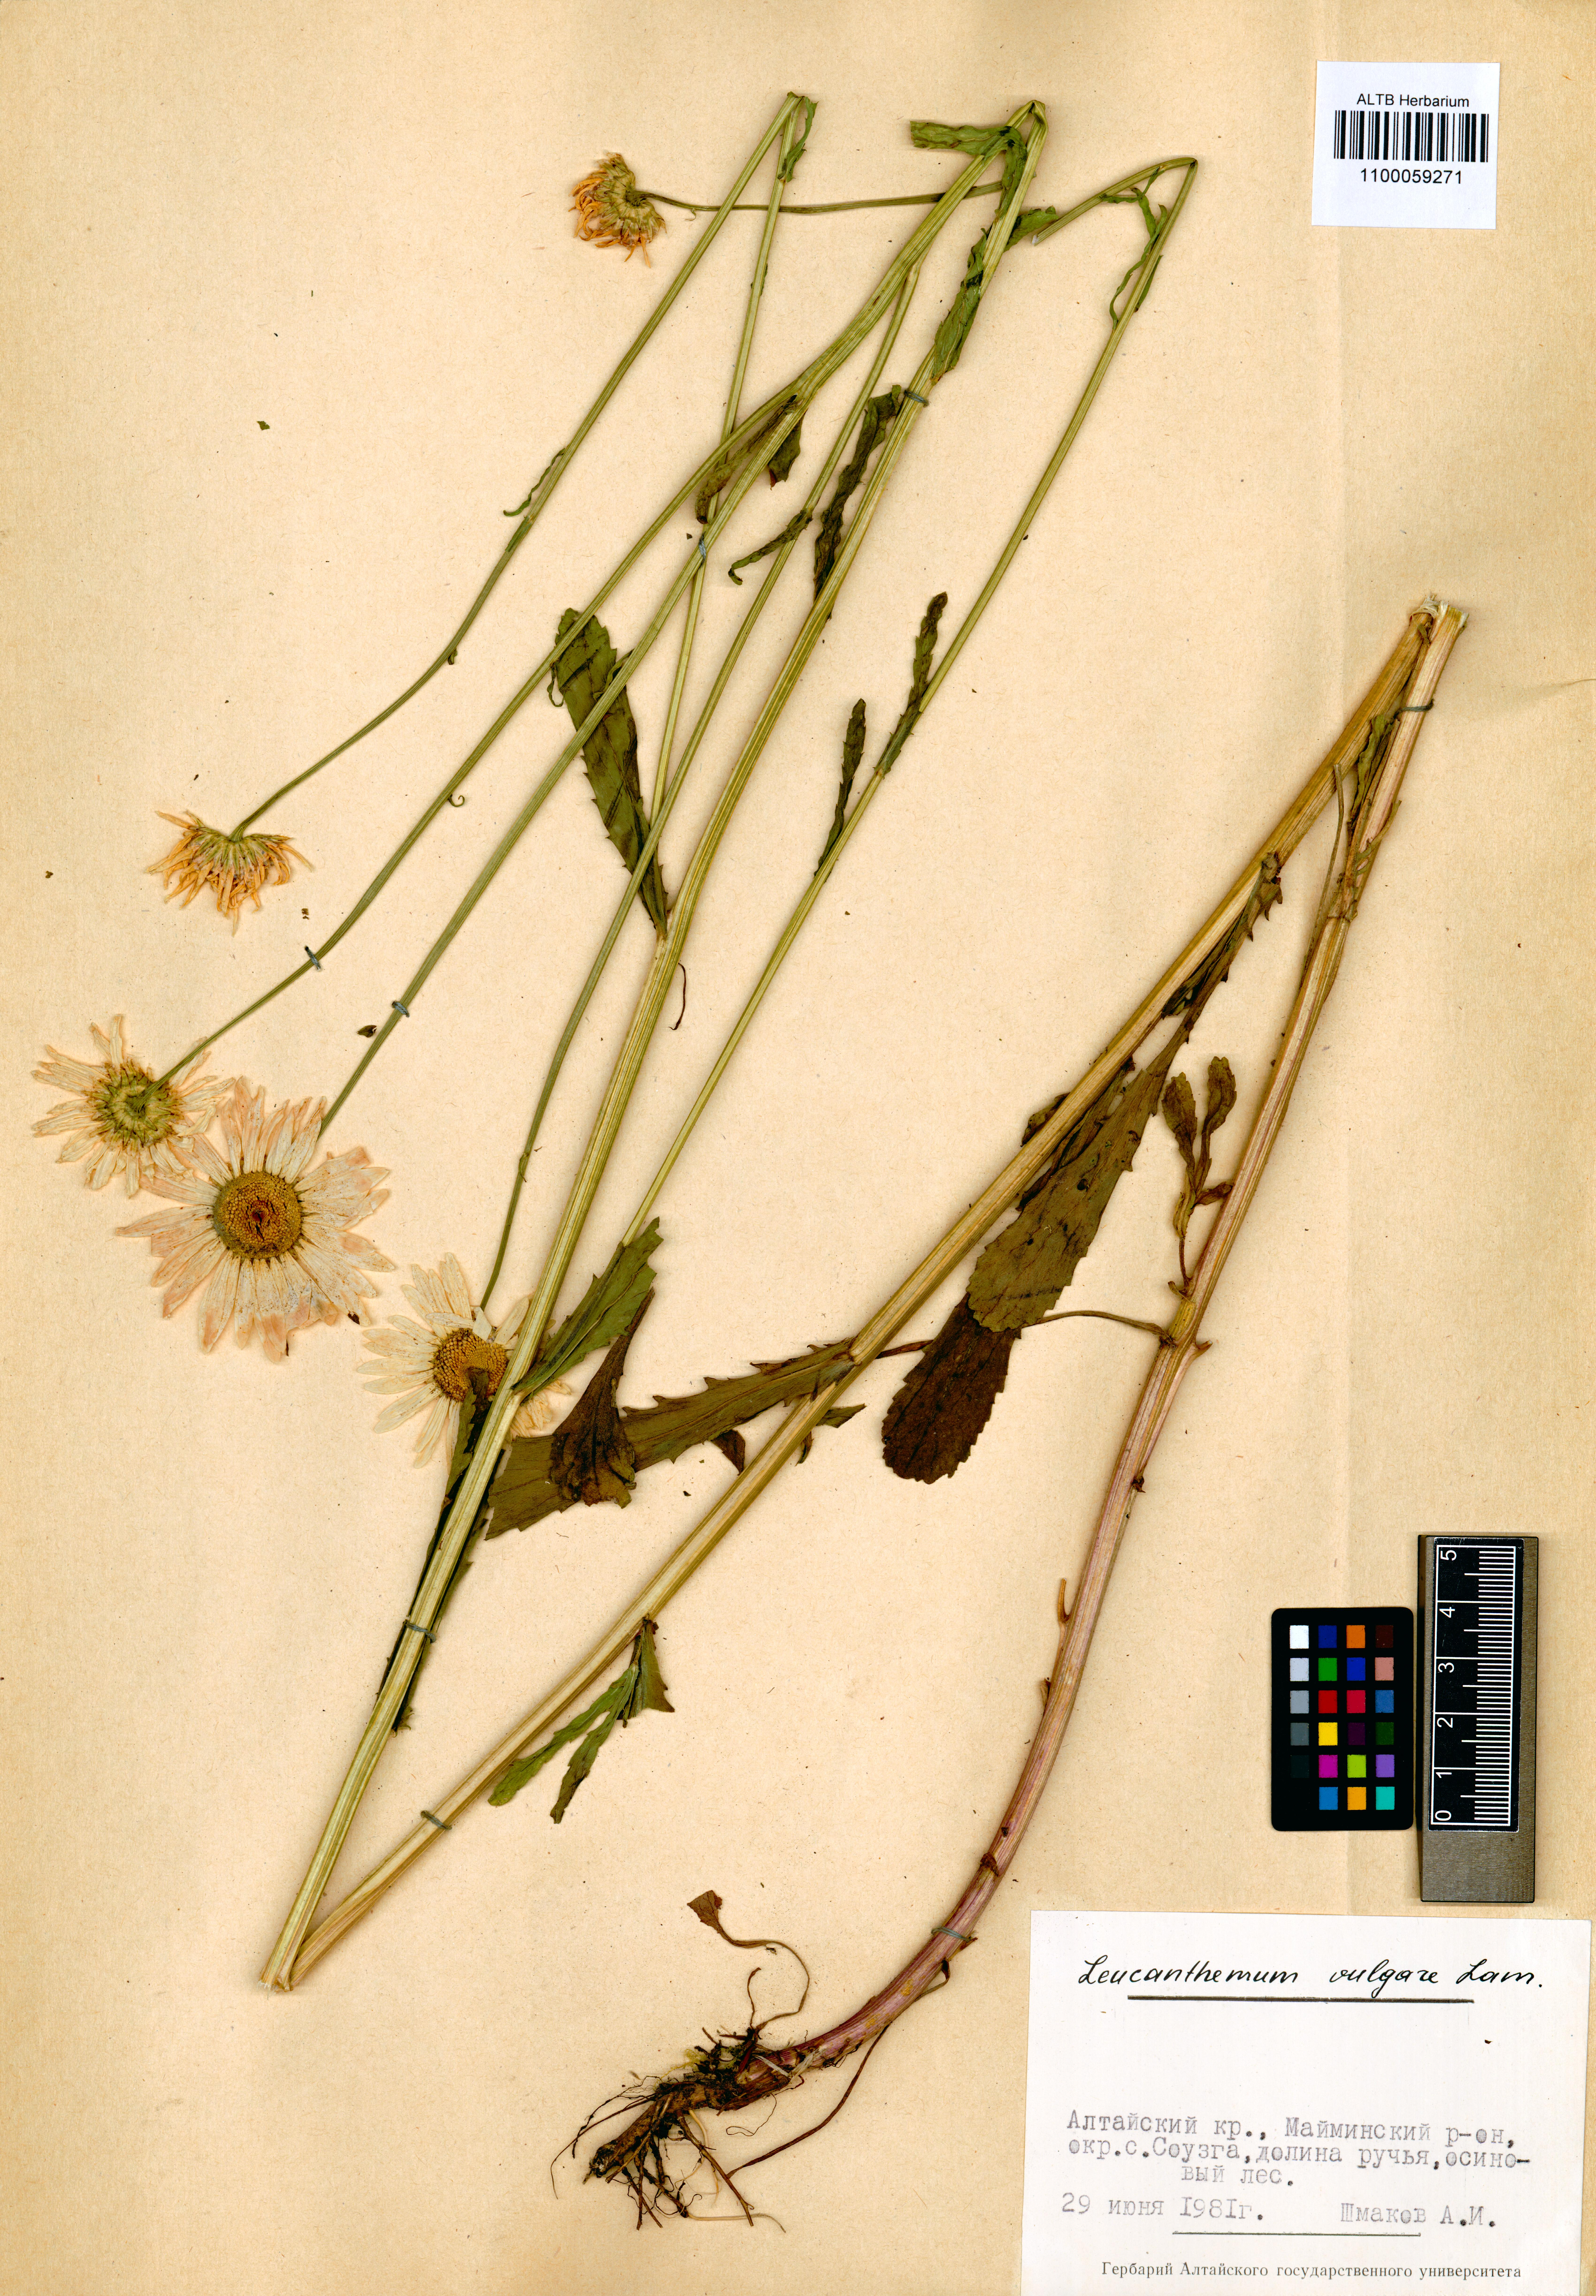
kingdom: Plantae
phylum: Tracheophyta
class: Magnoliopsida
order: Asterales
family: Asteraceae
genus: Leucanthemum
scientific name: Leucanthemum vulgare
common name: Oxeye daisy
